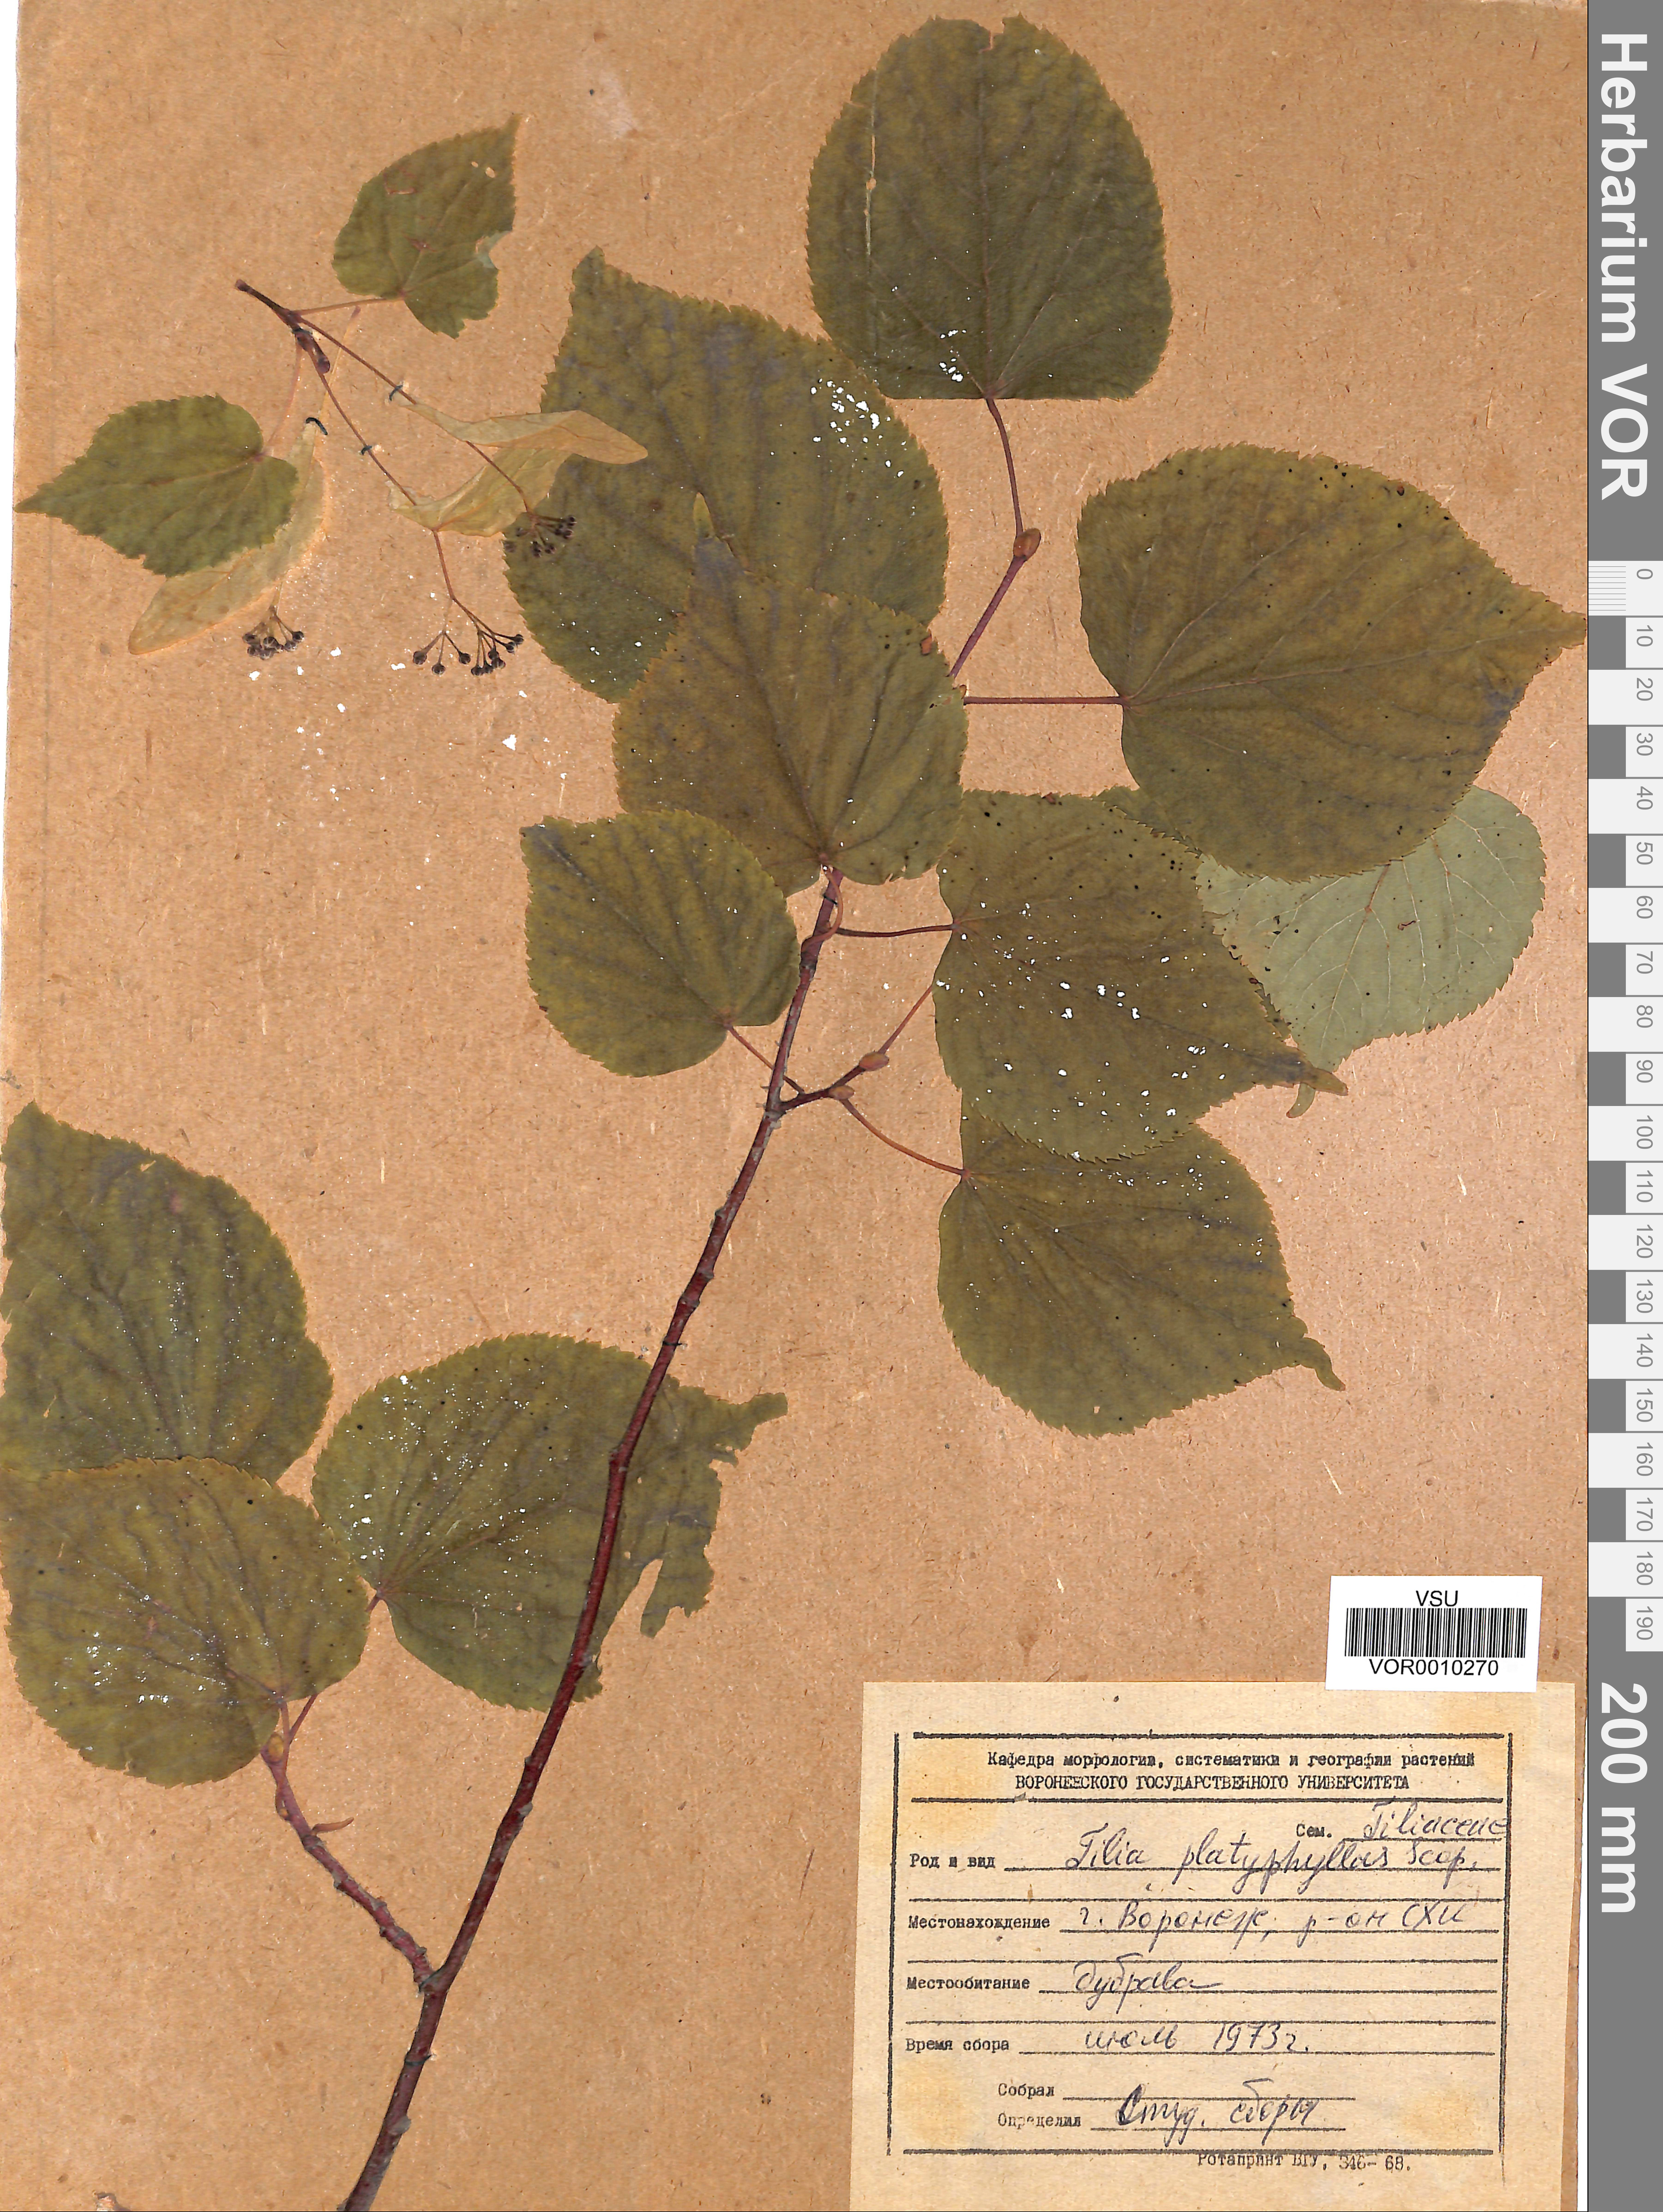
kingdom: Plantae
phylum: Tracheophyta
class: Magnoliopsida
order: Malvales
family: Malvaceae
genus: Tilia
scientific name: Tilia platyphyllos
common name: Large-leaved lime
